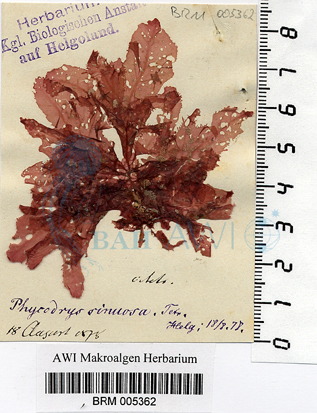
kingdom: Plantae
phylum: Rhodophyta
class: Florideophyceae
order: Ceramiales
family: Delesseriaceae
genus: Phycodrys
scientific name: Phycodrys rubens
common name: Sea oak
